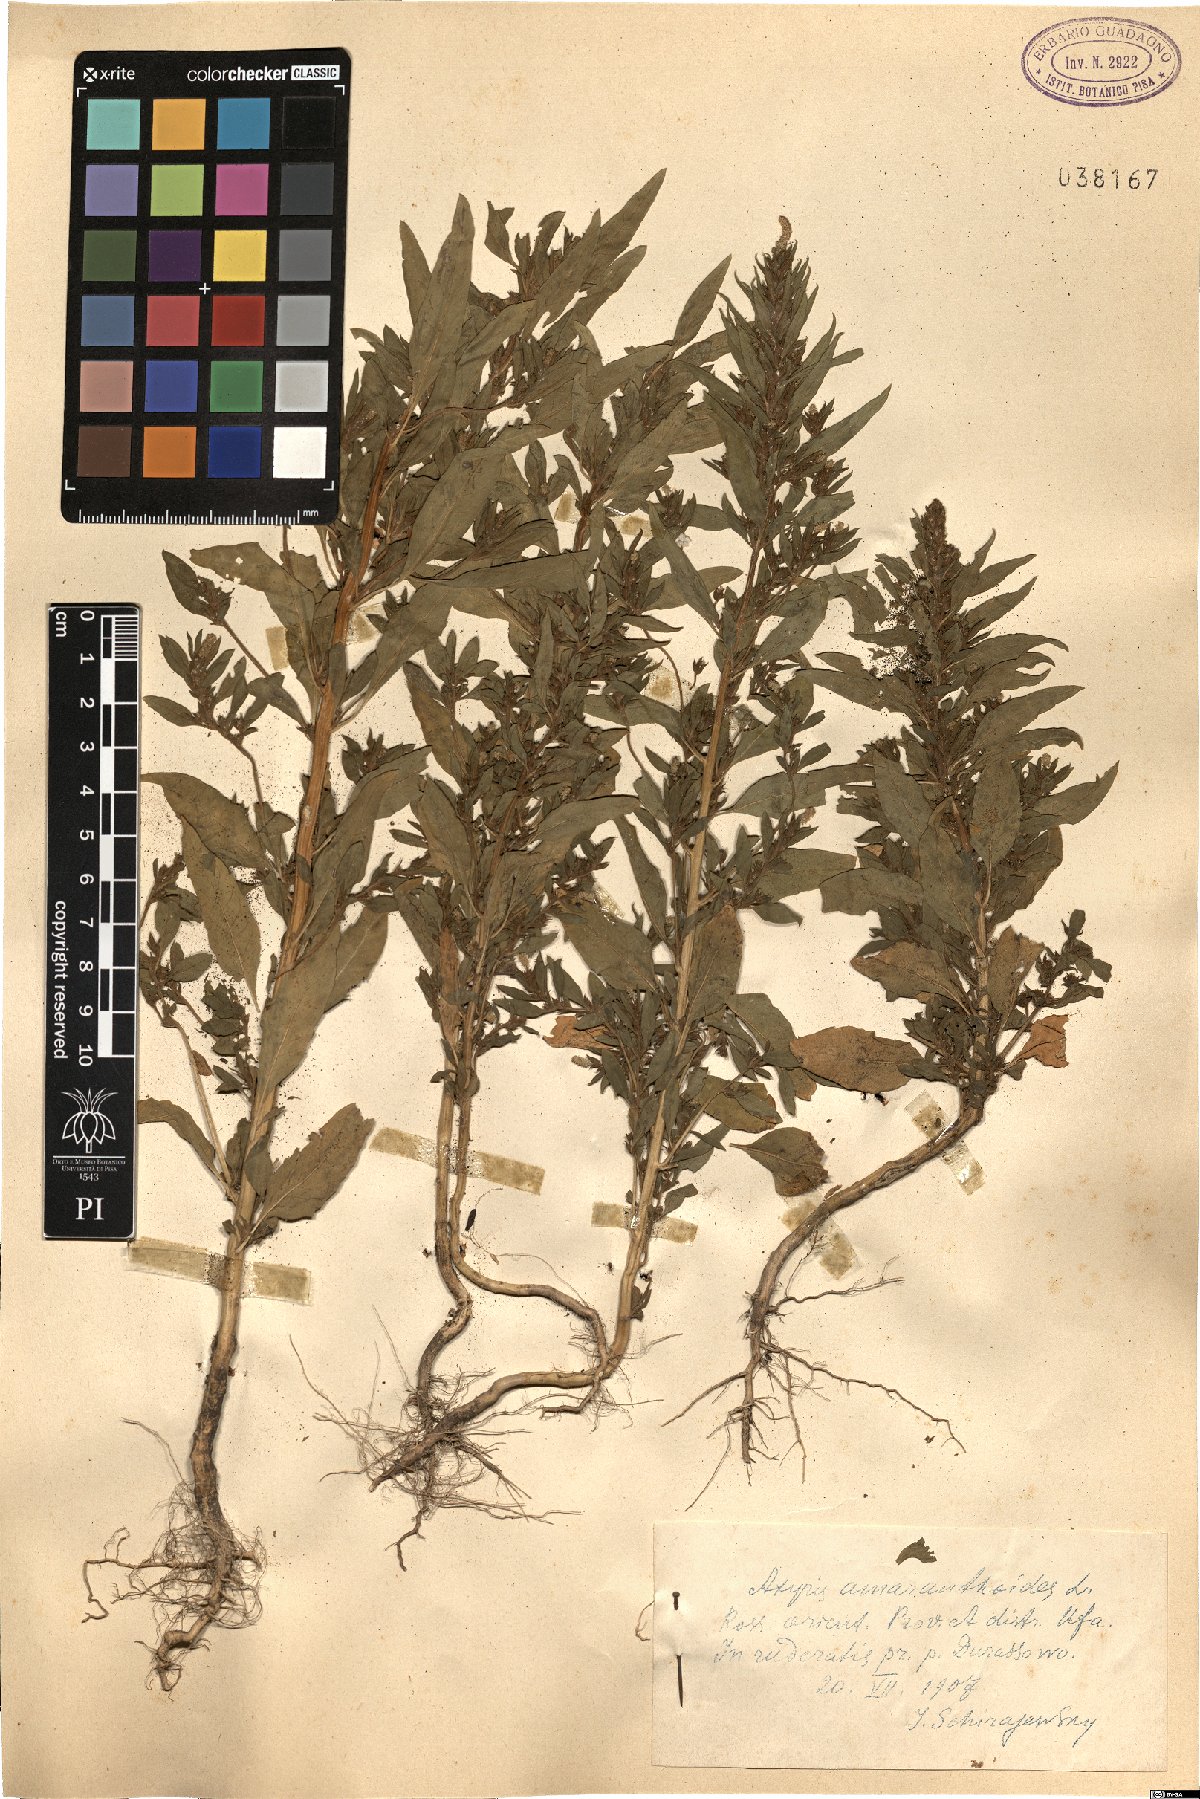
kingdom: Plantae
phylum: Tracheophyta
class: Magnoliopsida
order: Caryophyllales
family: Amaranthaceae
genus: Axyris
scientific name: Axyris amaranthoides
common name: Russian pigweed
